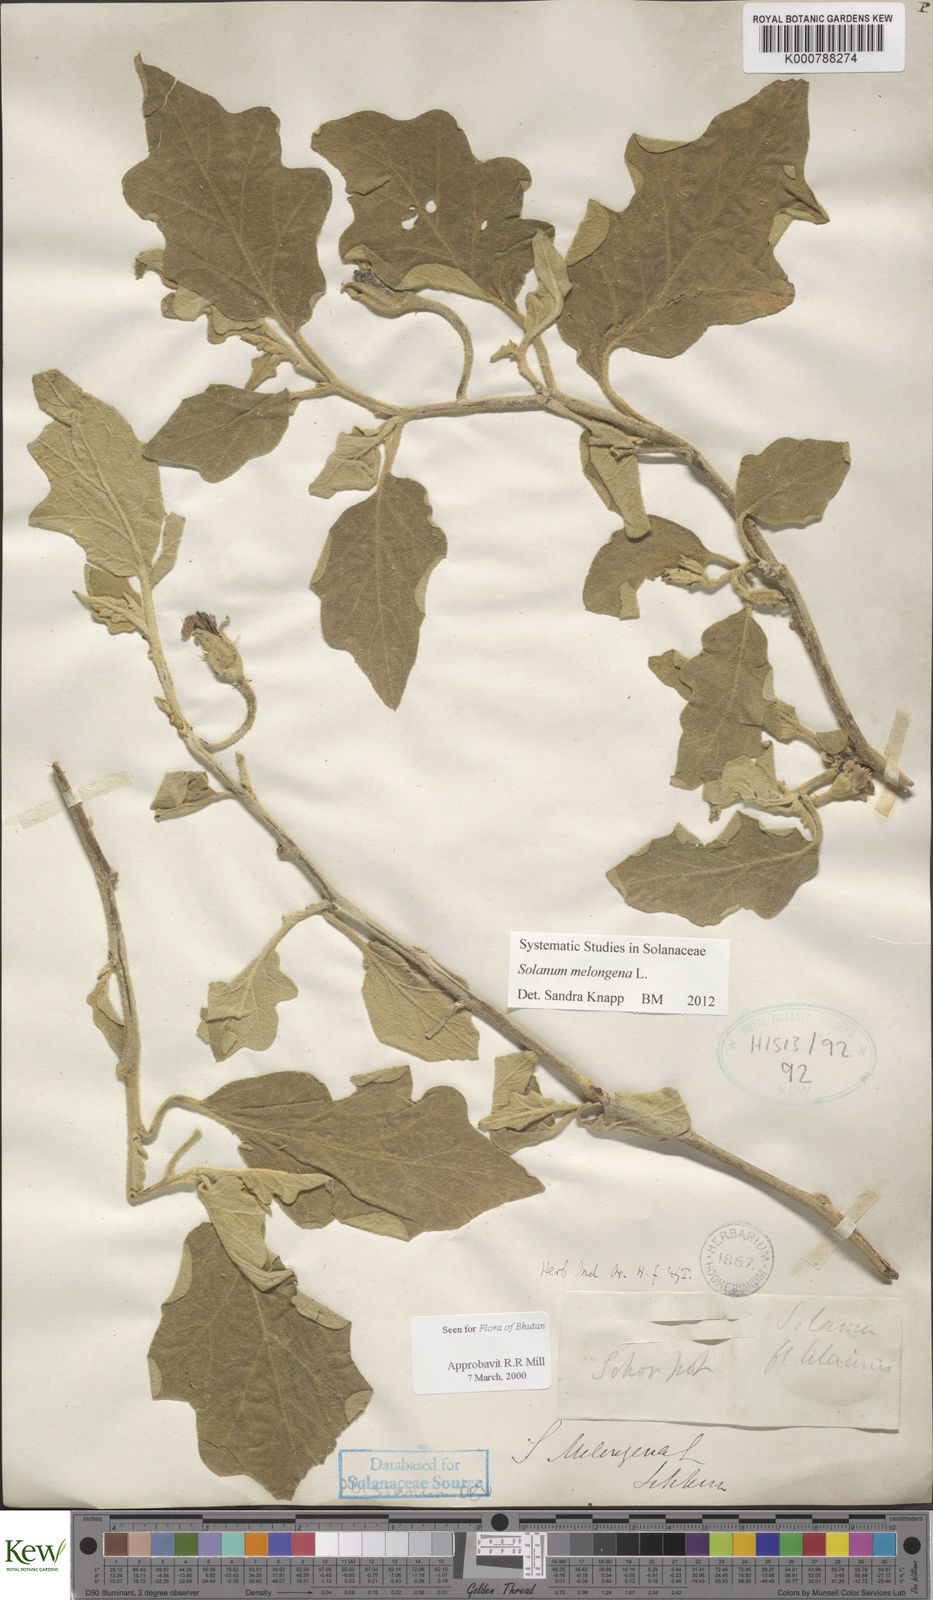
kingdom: Plantae
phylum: Tracheophyta
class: Magnoliopsida
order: Solanales
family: Solanaceae
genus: Solanum
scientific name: Solanum melongena
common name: Eggplant
